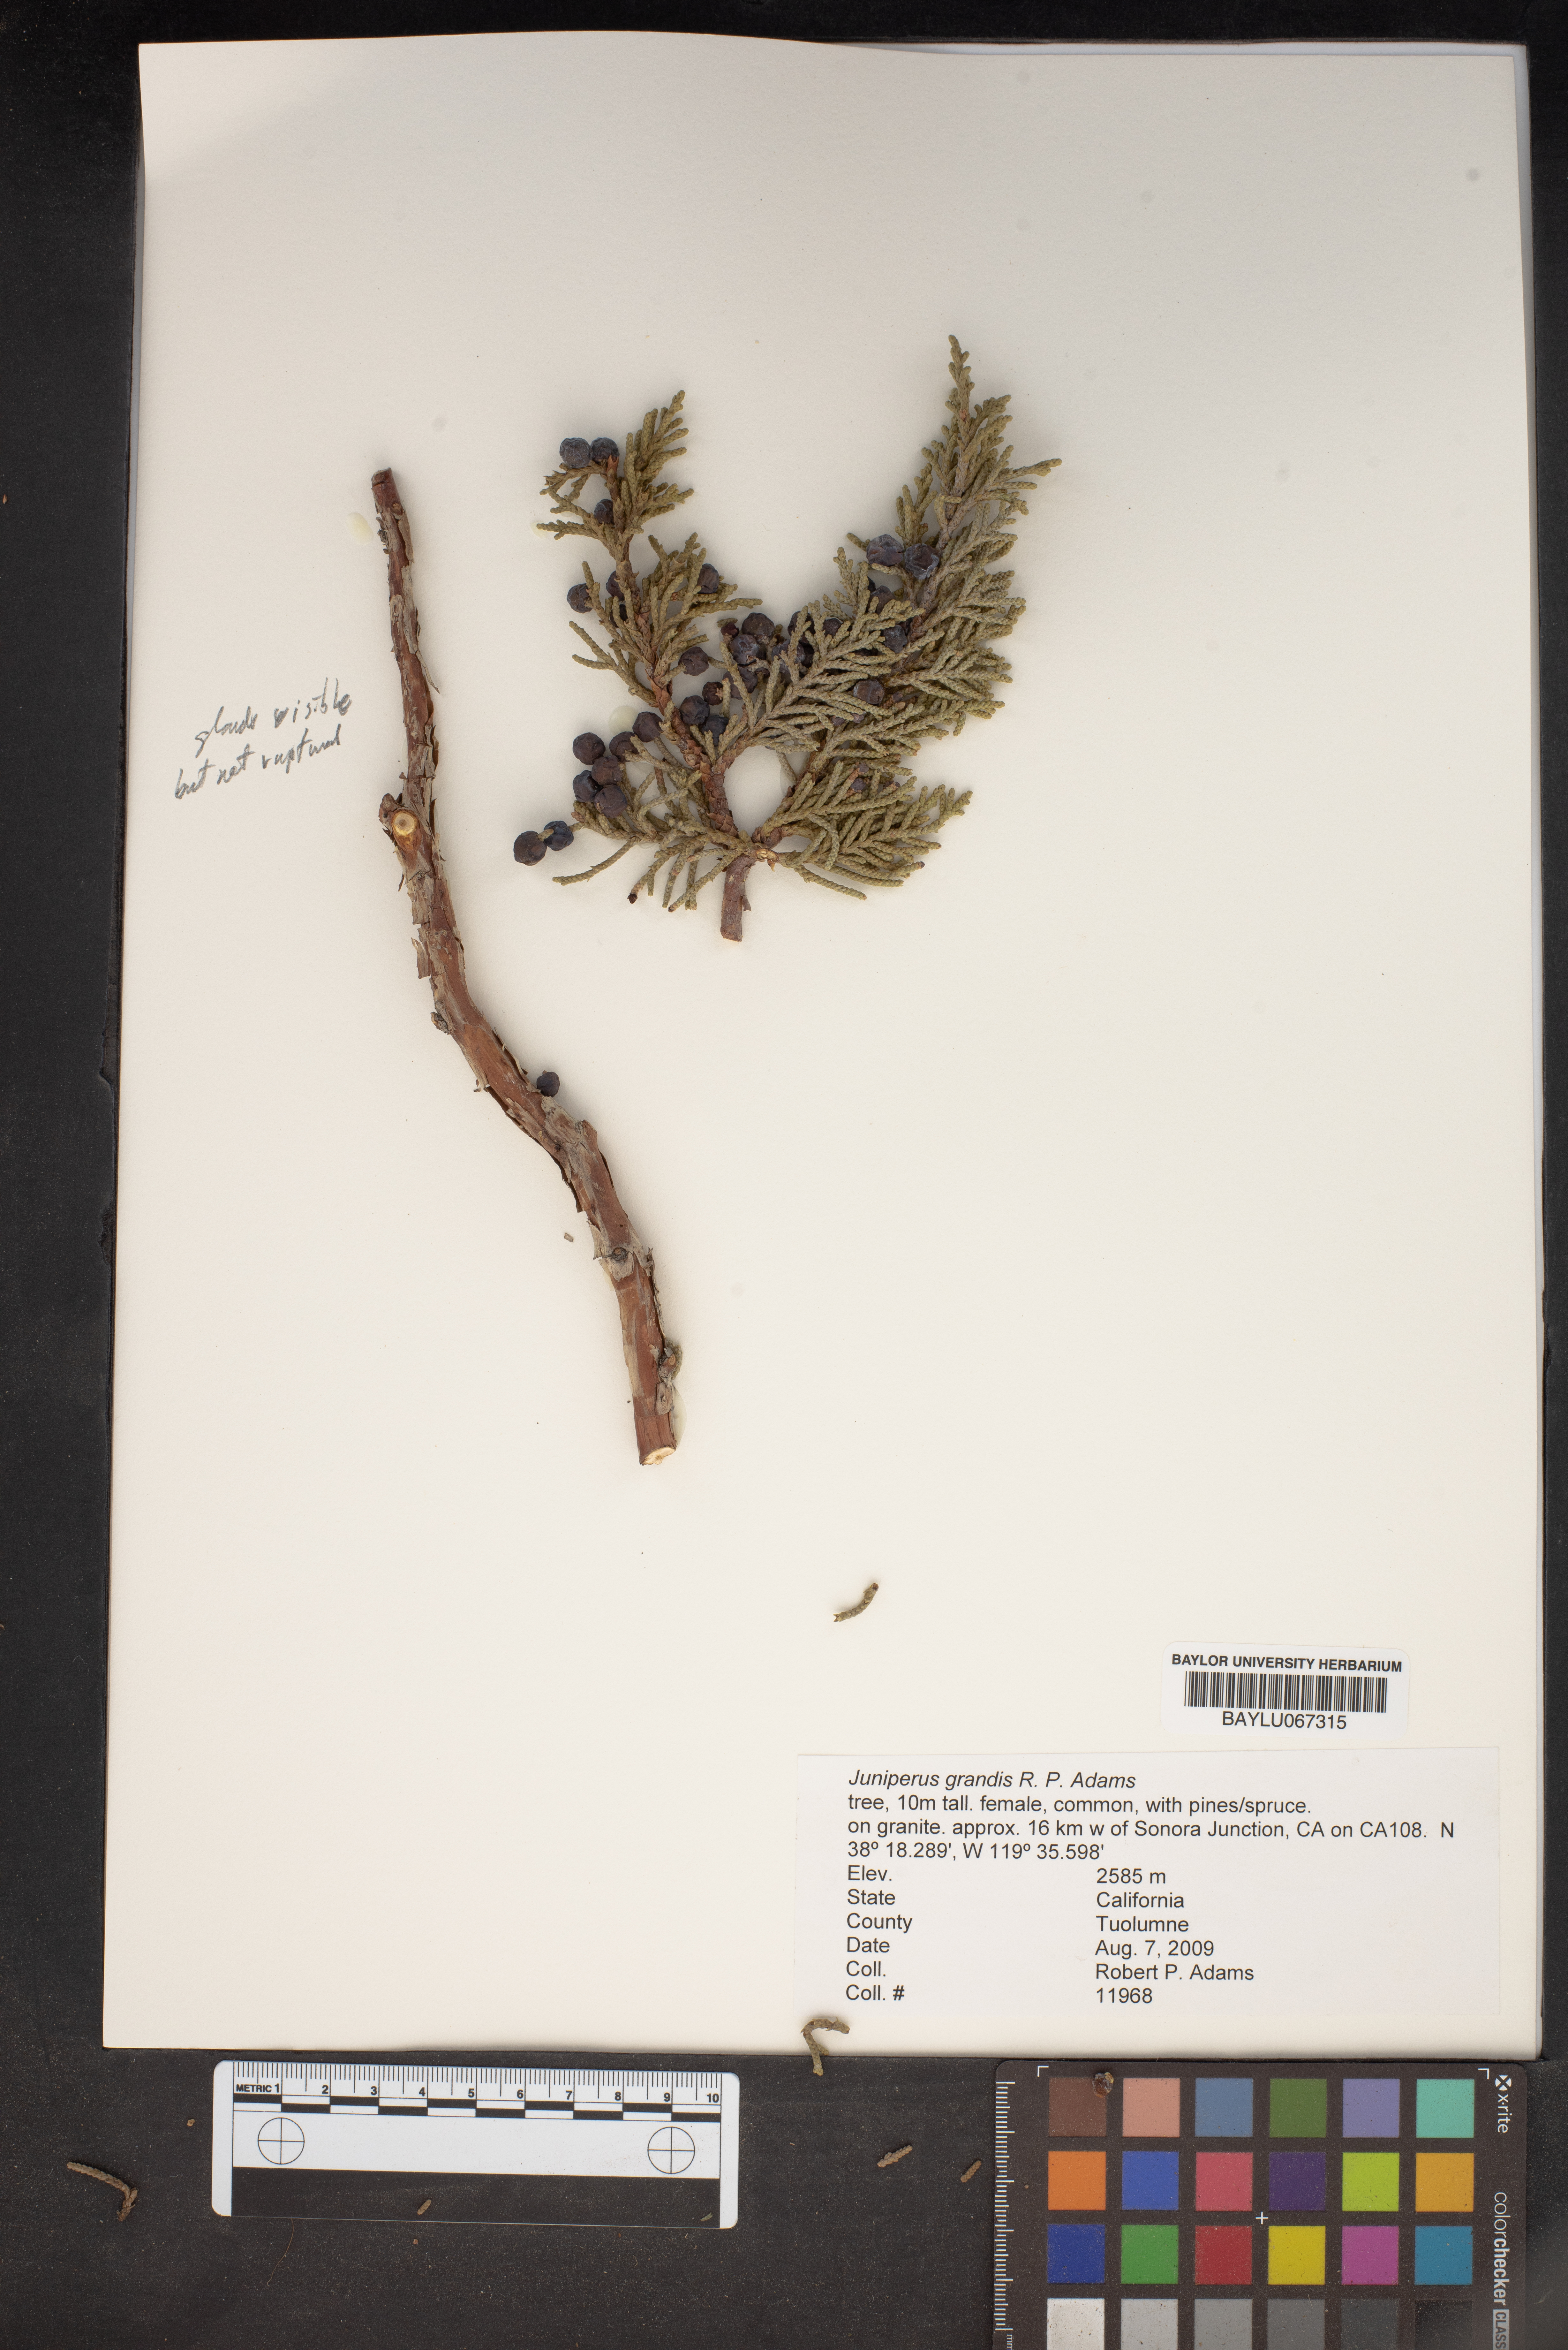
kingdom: Plantae
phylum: Tracheophyta
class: Pinopsida
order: Pinales
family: Cupressaceae
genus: Juniperus
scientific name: Juniperus occidentalis
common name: Western juniper
